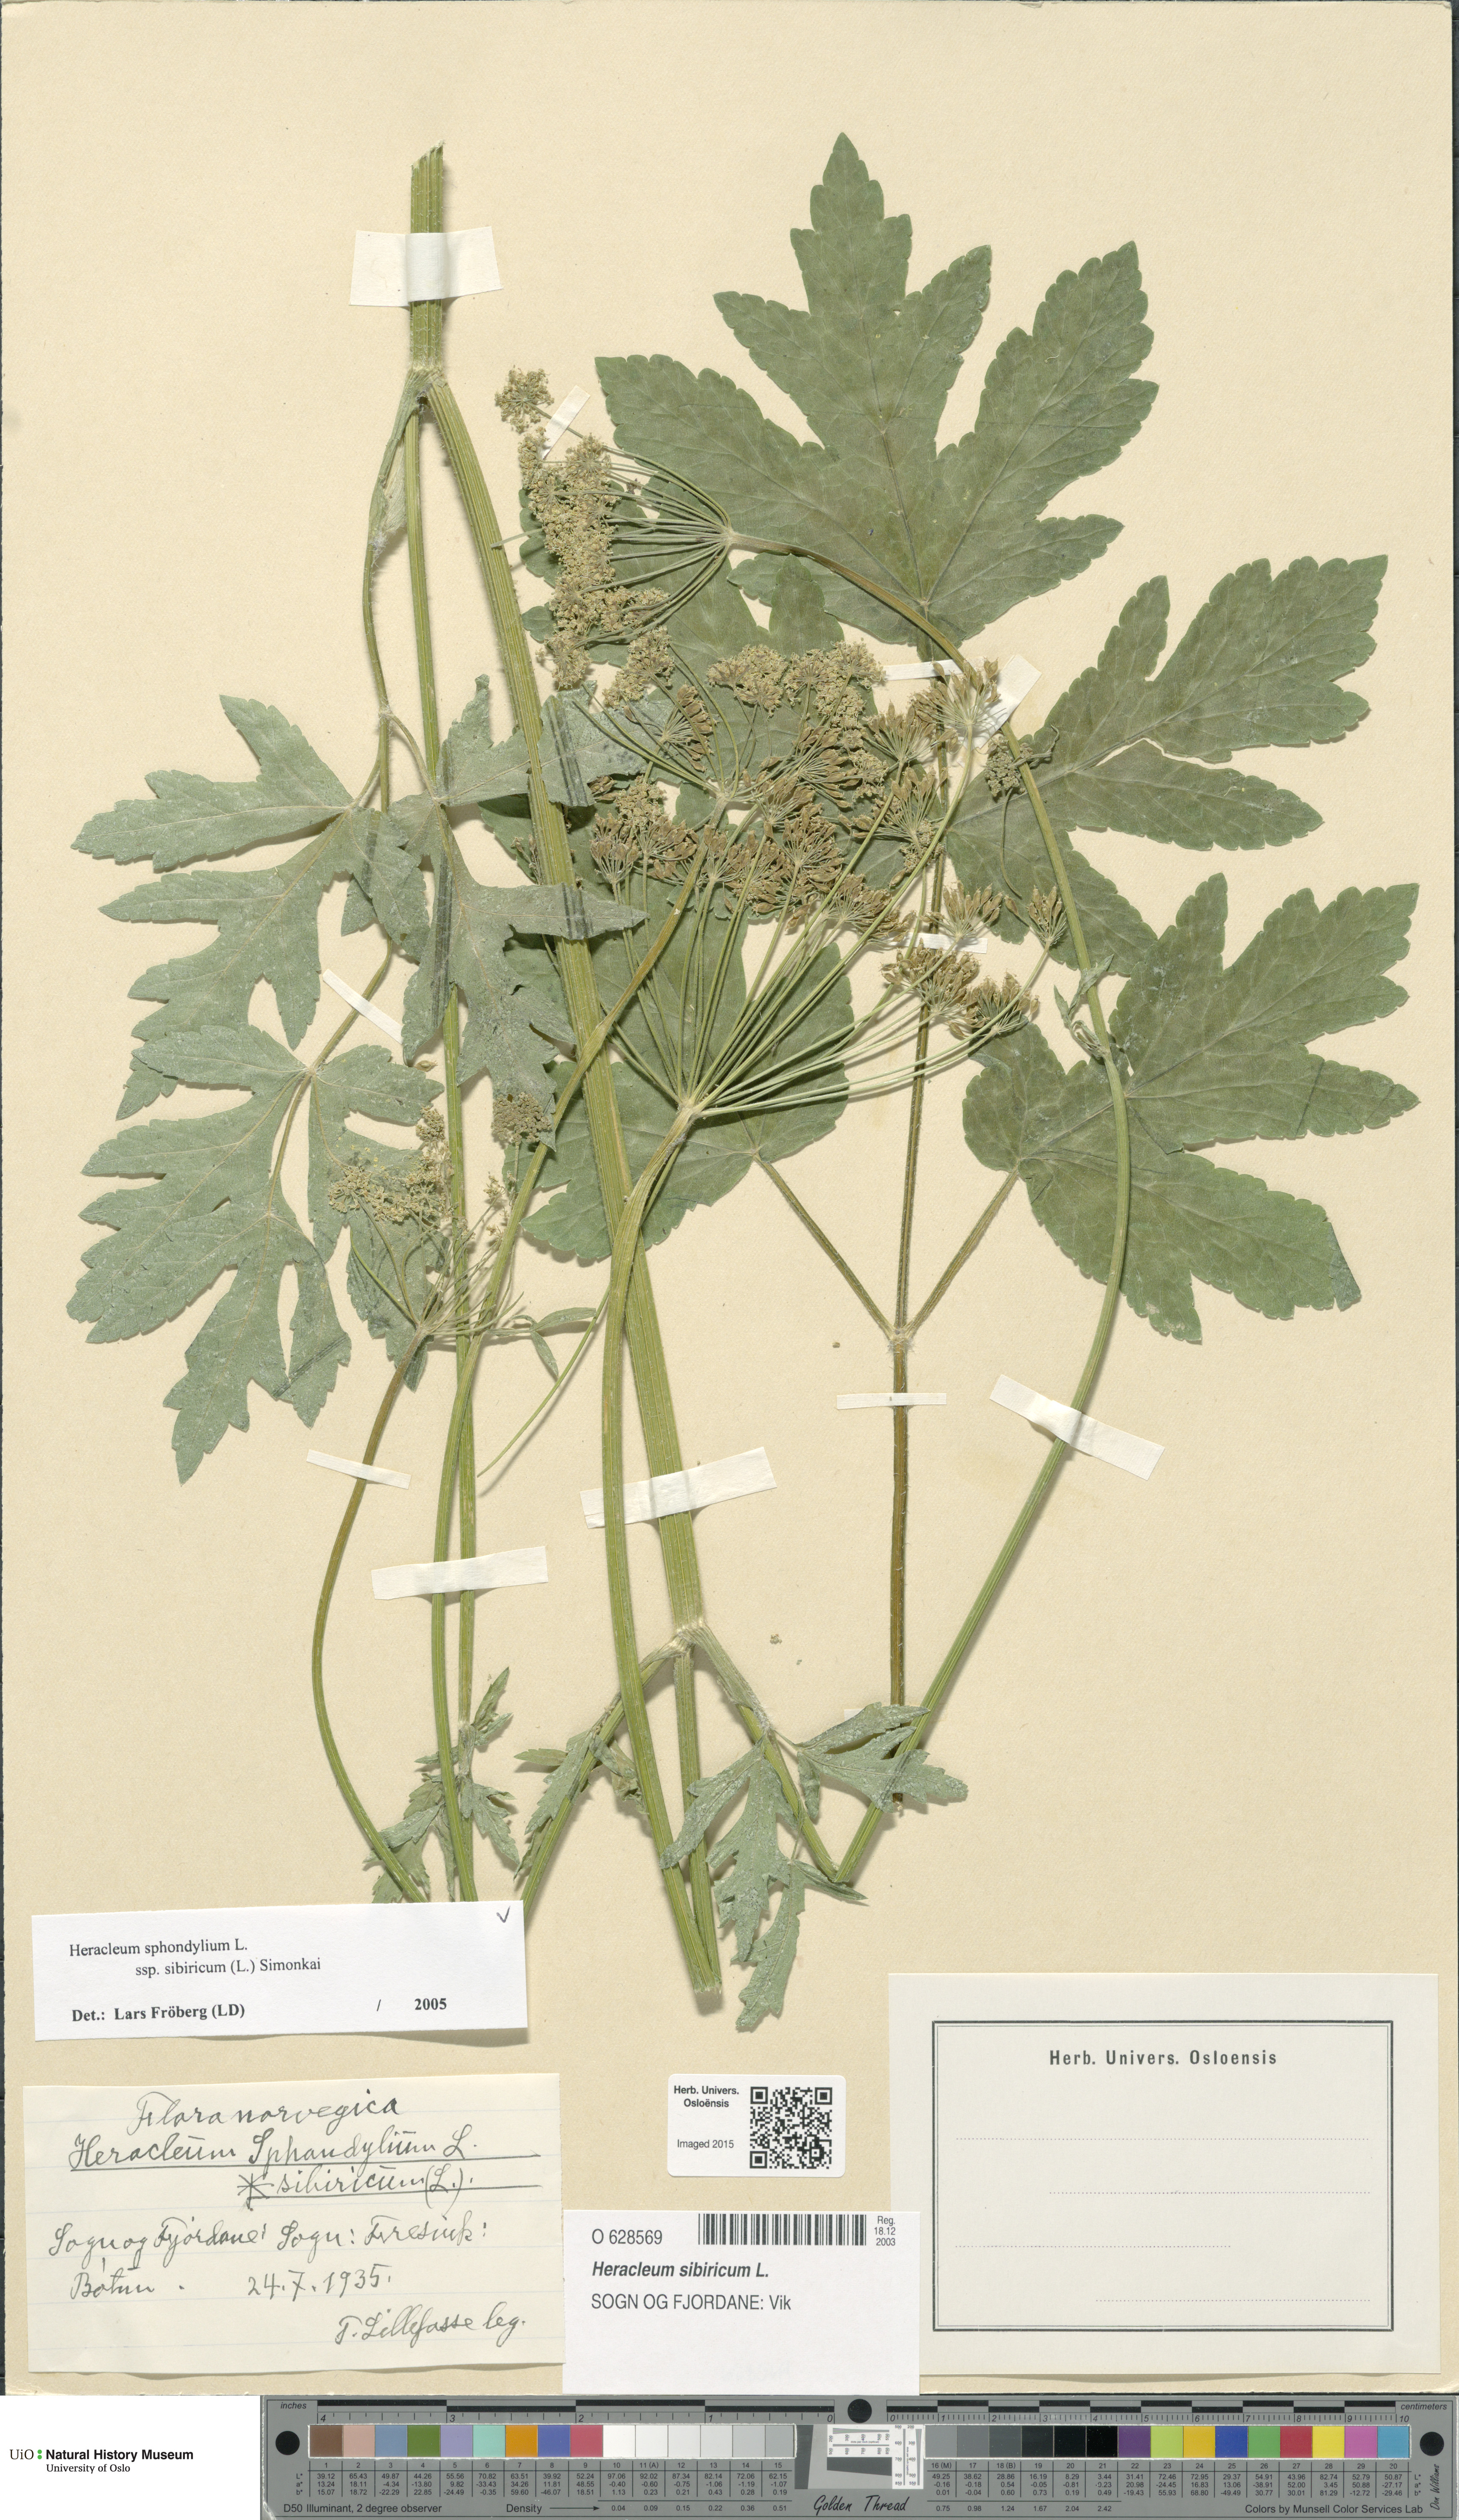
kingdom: Plantae
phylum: Tracheophyta
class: Magnoliopsida
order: Apiales
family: Apiaceae
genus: Heracleum
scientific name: Heracleum sphondylium
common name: Hogweed
